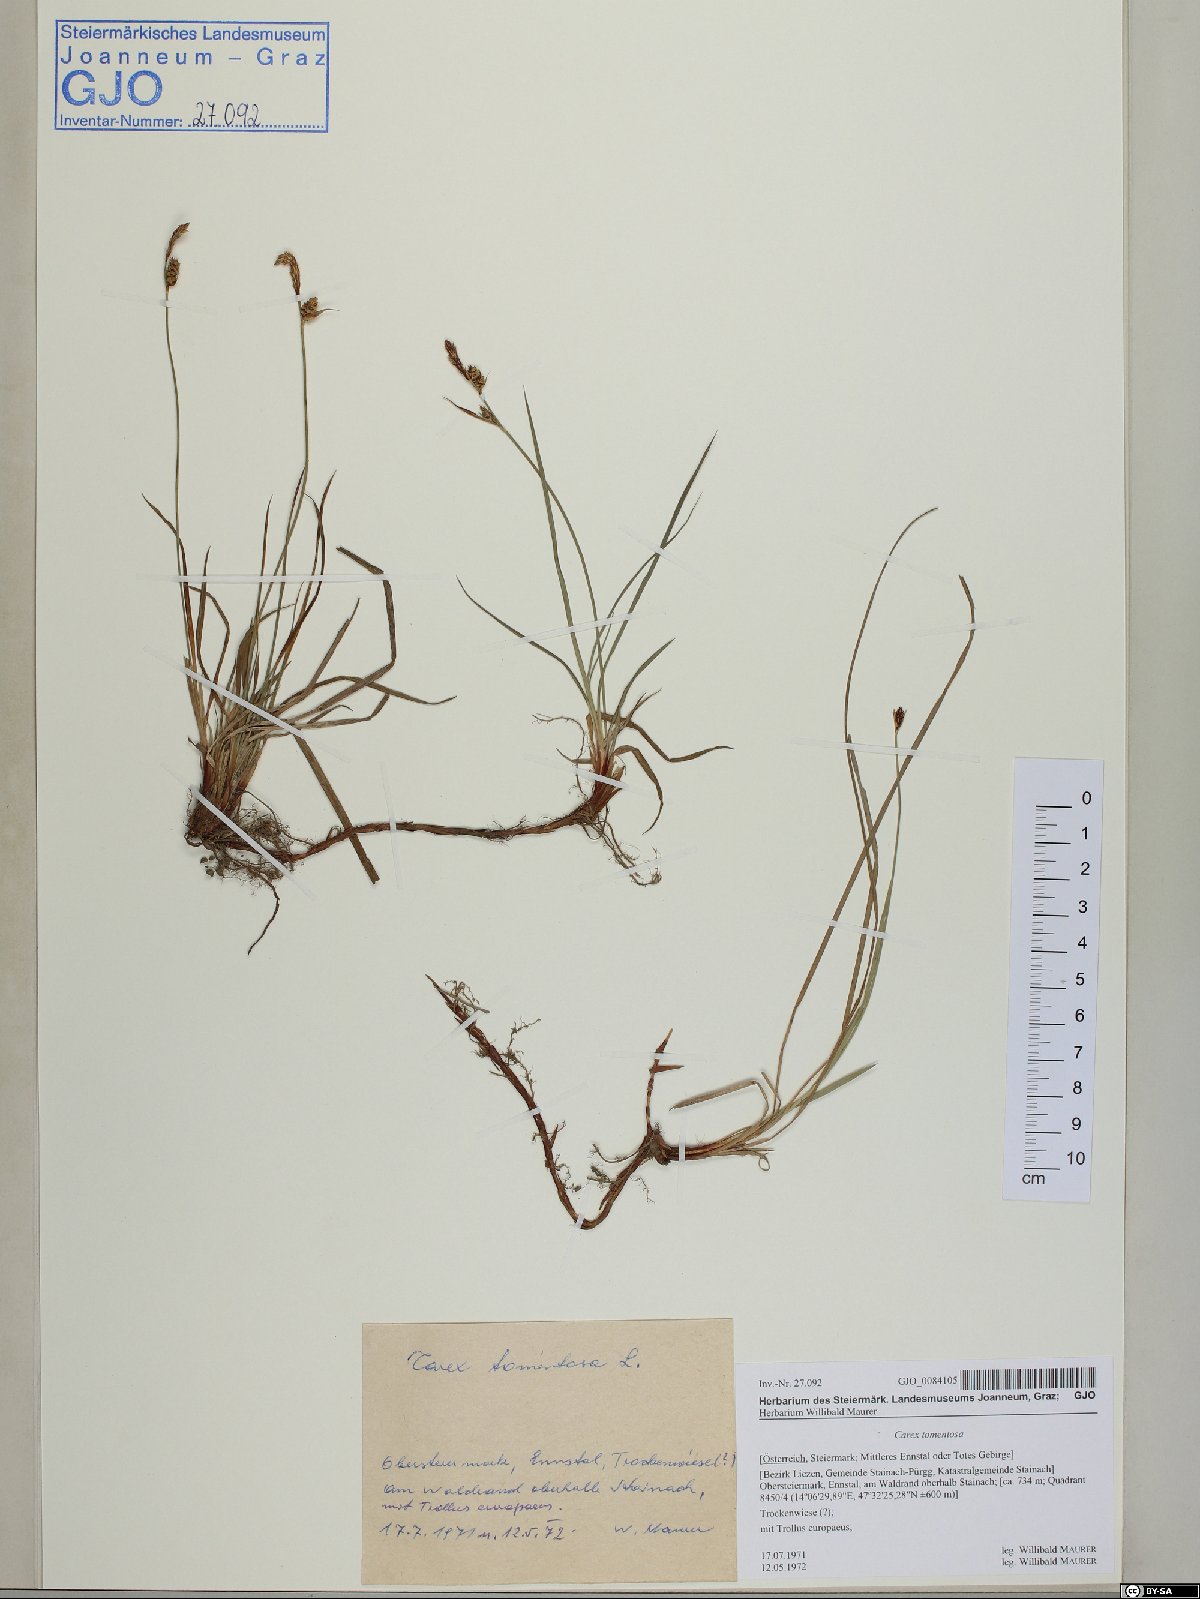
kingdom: Plantae
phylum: Tracheophyta
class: Liliopsida
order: Poales
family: Cyperaceae
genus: Carex
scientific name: Carex tomentosa
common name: Downy-fruited sedge
